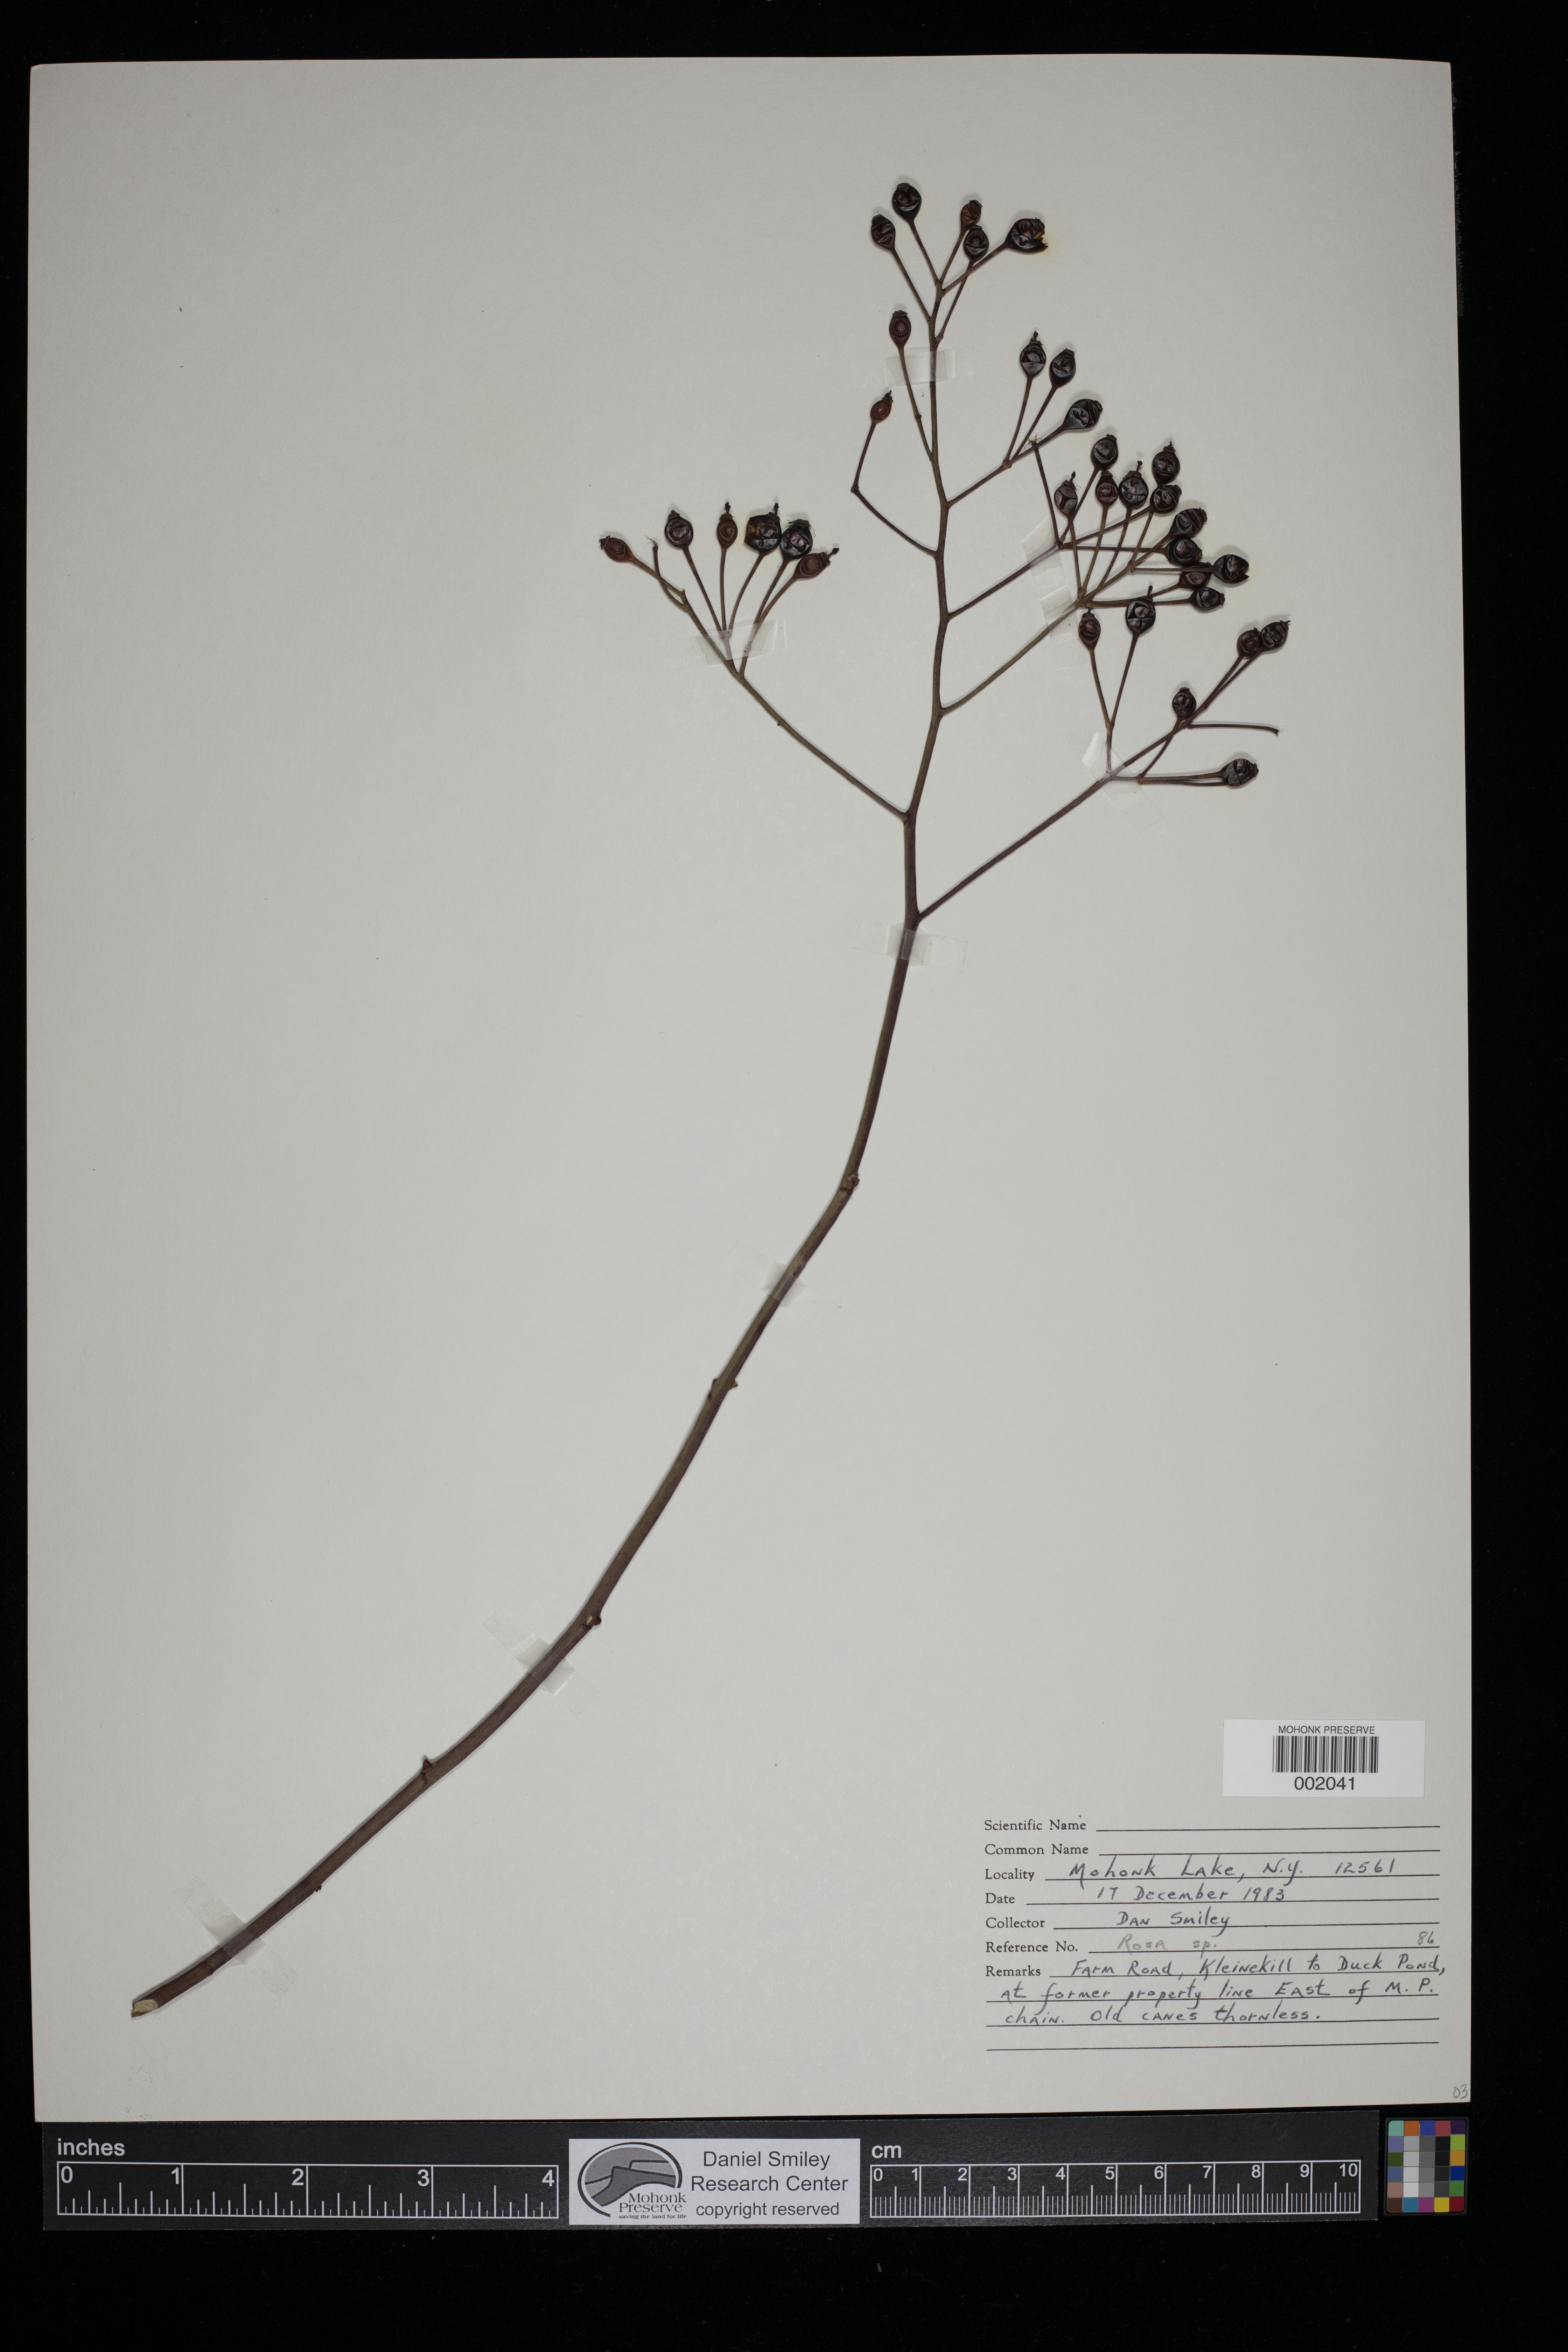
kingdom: Plantae
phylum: Tracheophyta
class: Magnoliopsida
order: Rosales
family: Rosaceae
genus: Rosa
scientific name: Rosa
